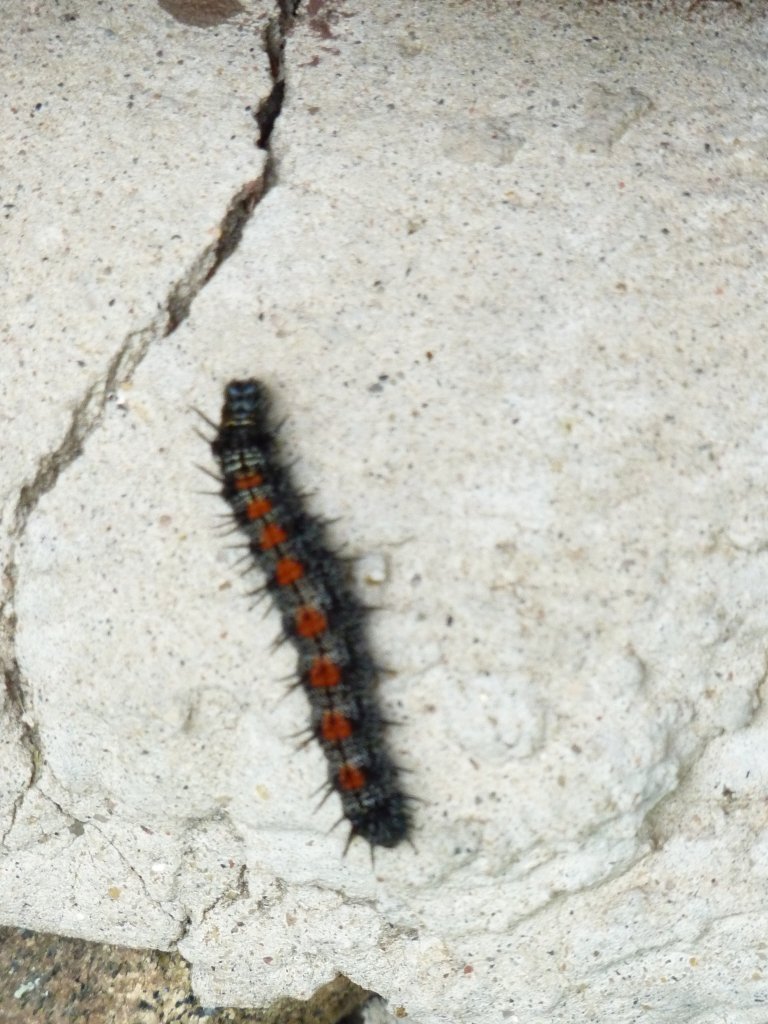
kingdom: Animalia
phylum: Arthropoda
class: Insecta
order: Lepidoptera
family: Nymphalidae
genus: Nymphalis
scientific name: Nymphalis antiopa
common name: Mourning Cloak
